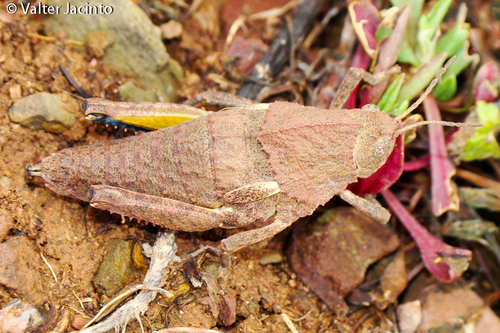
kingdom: Animalia
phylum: Arthropoda
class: Insecta
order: Orthoptera
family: Pamphagidae
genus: Ocnerodes
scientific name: Ocnerodes fallaciosus
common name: Misleading stone grasshopper
